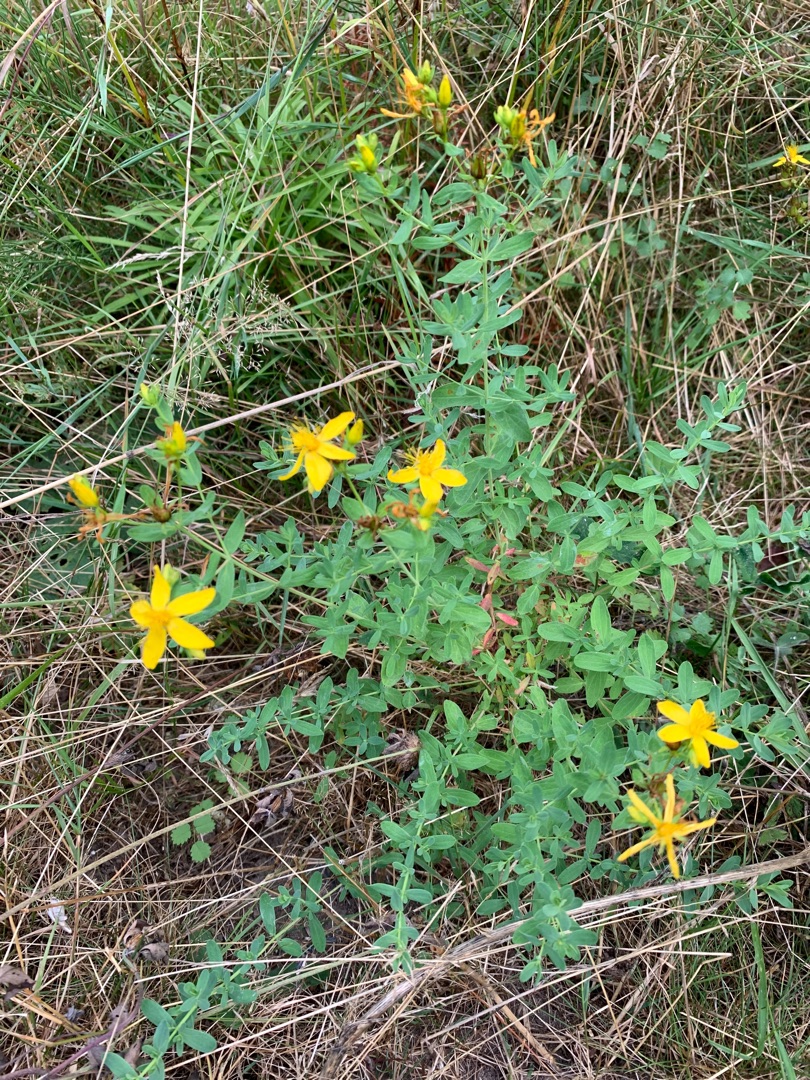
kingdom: Plantae
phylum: Tracheophyta
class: Magnoliopsida
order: Malpighiales
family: Hypericaceae
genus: Hypericum
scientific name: Hypericum perforatum
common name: Prikbladet perikon
